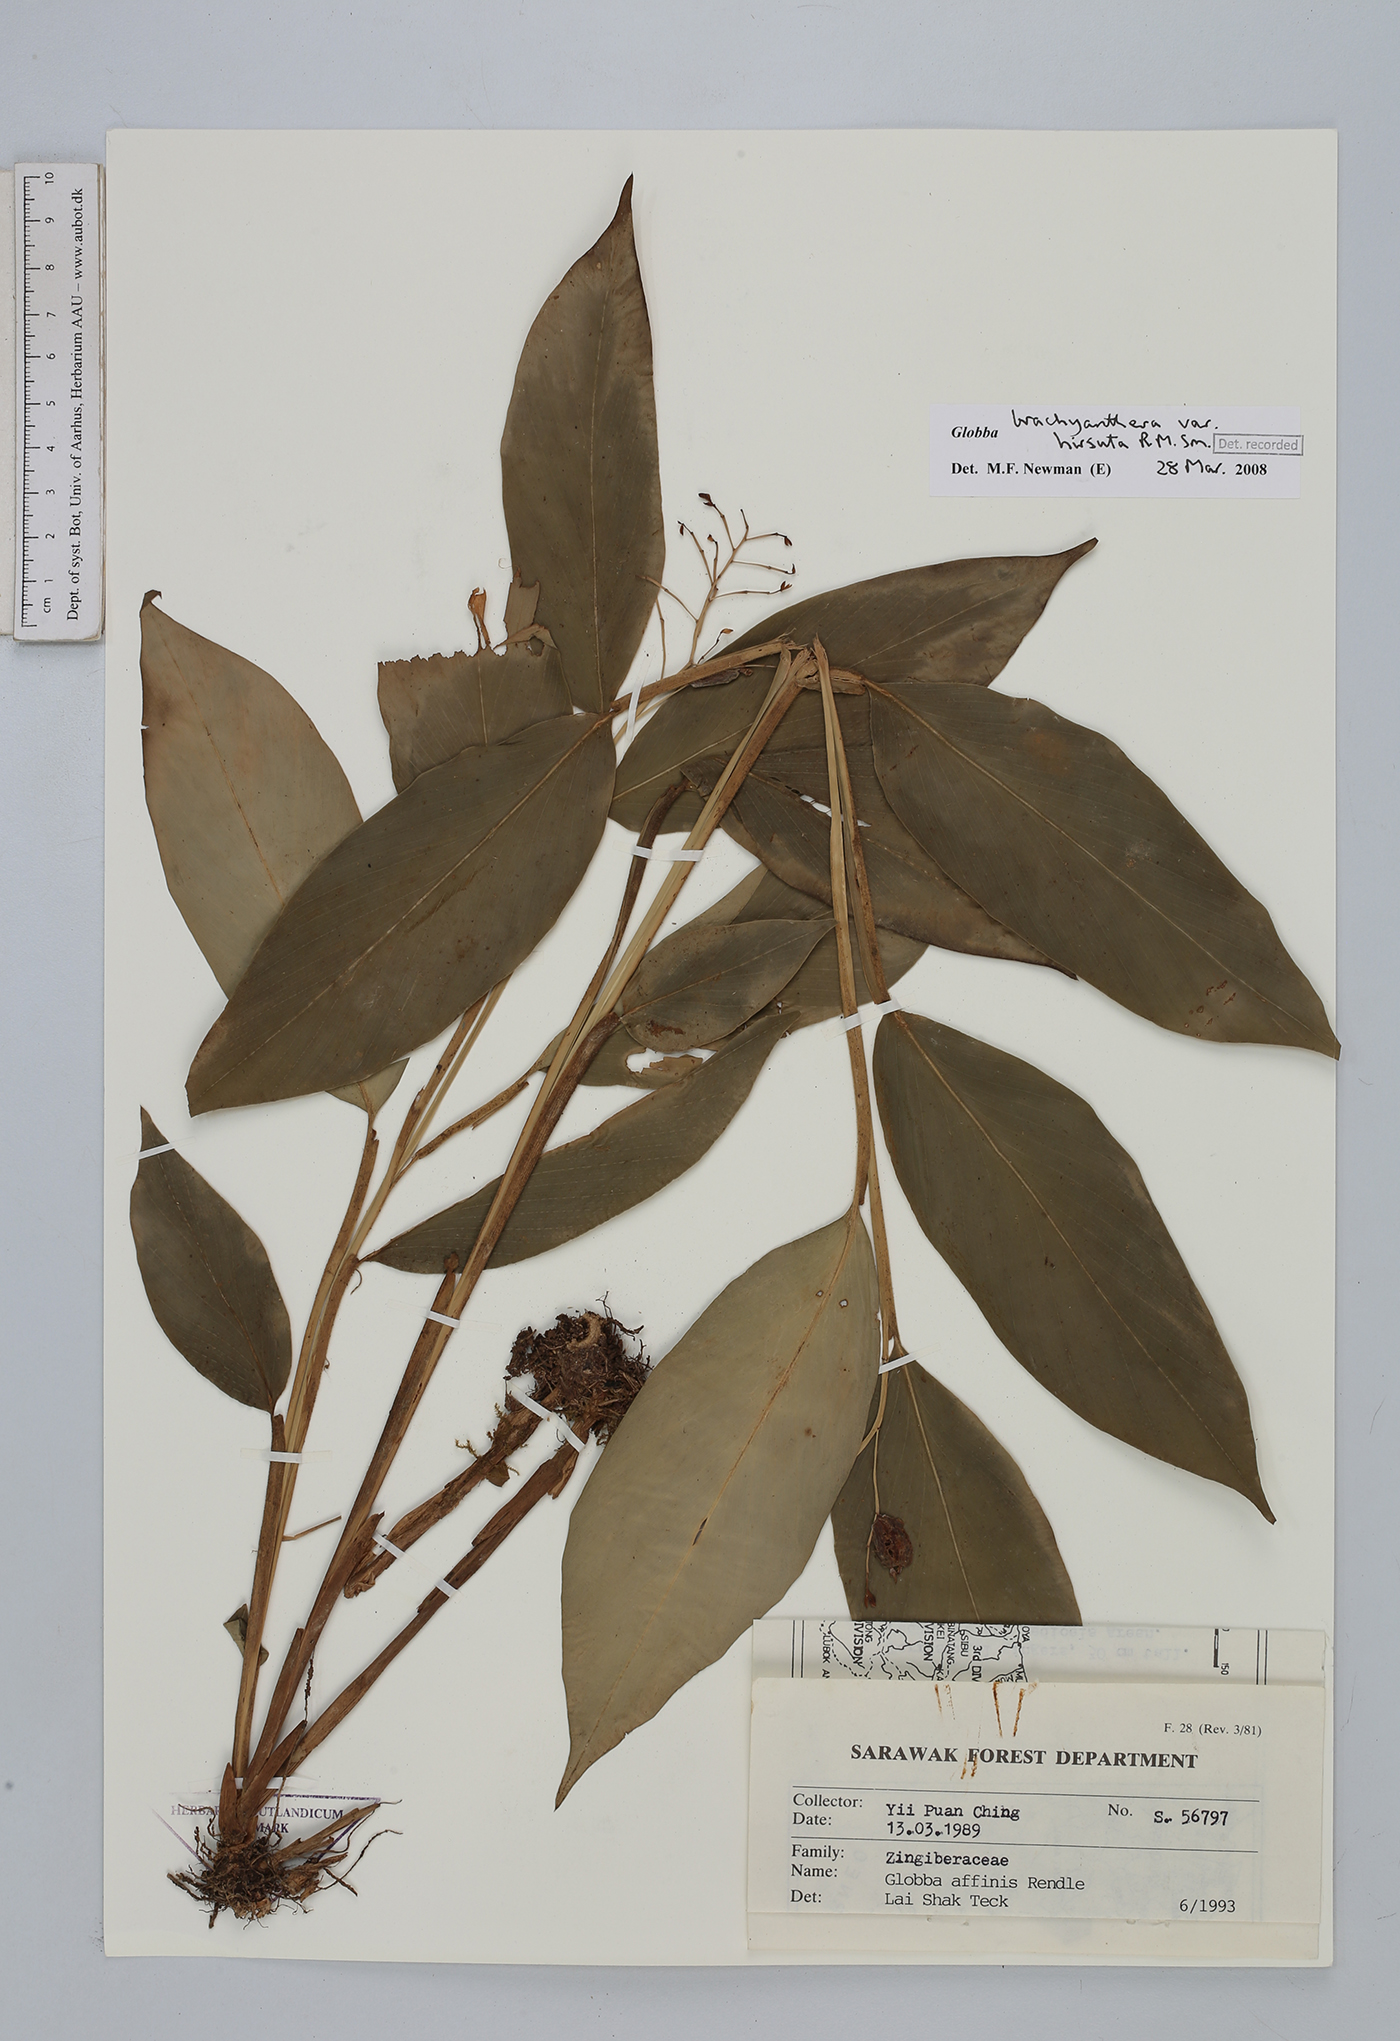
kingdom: Plantae
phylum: Tracheophyta
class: Liliopsida
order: Zingiberales
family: Zingiberaceae
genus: Globba
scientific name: Globba brachyanthera
